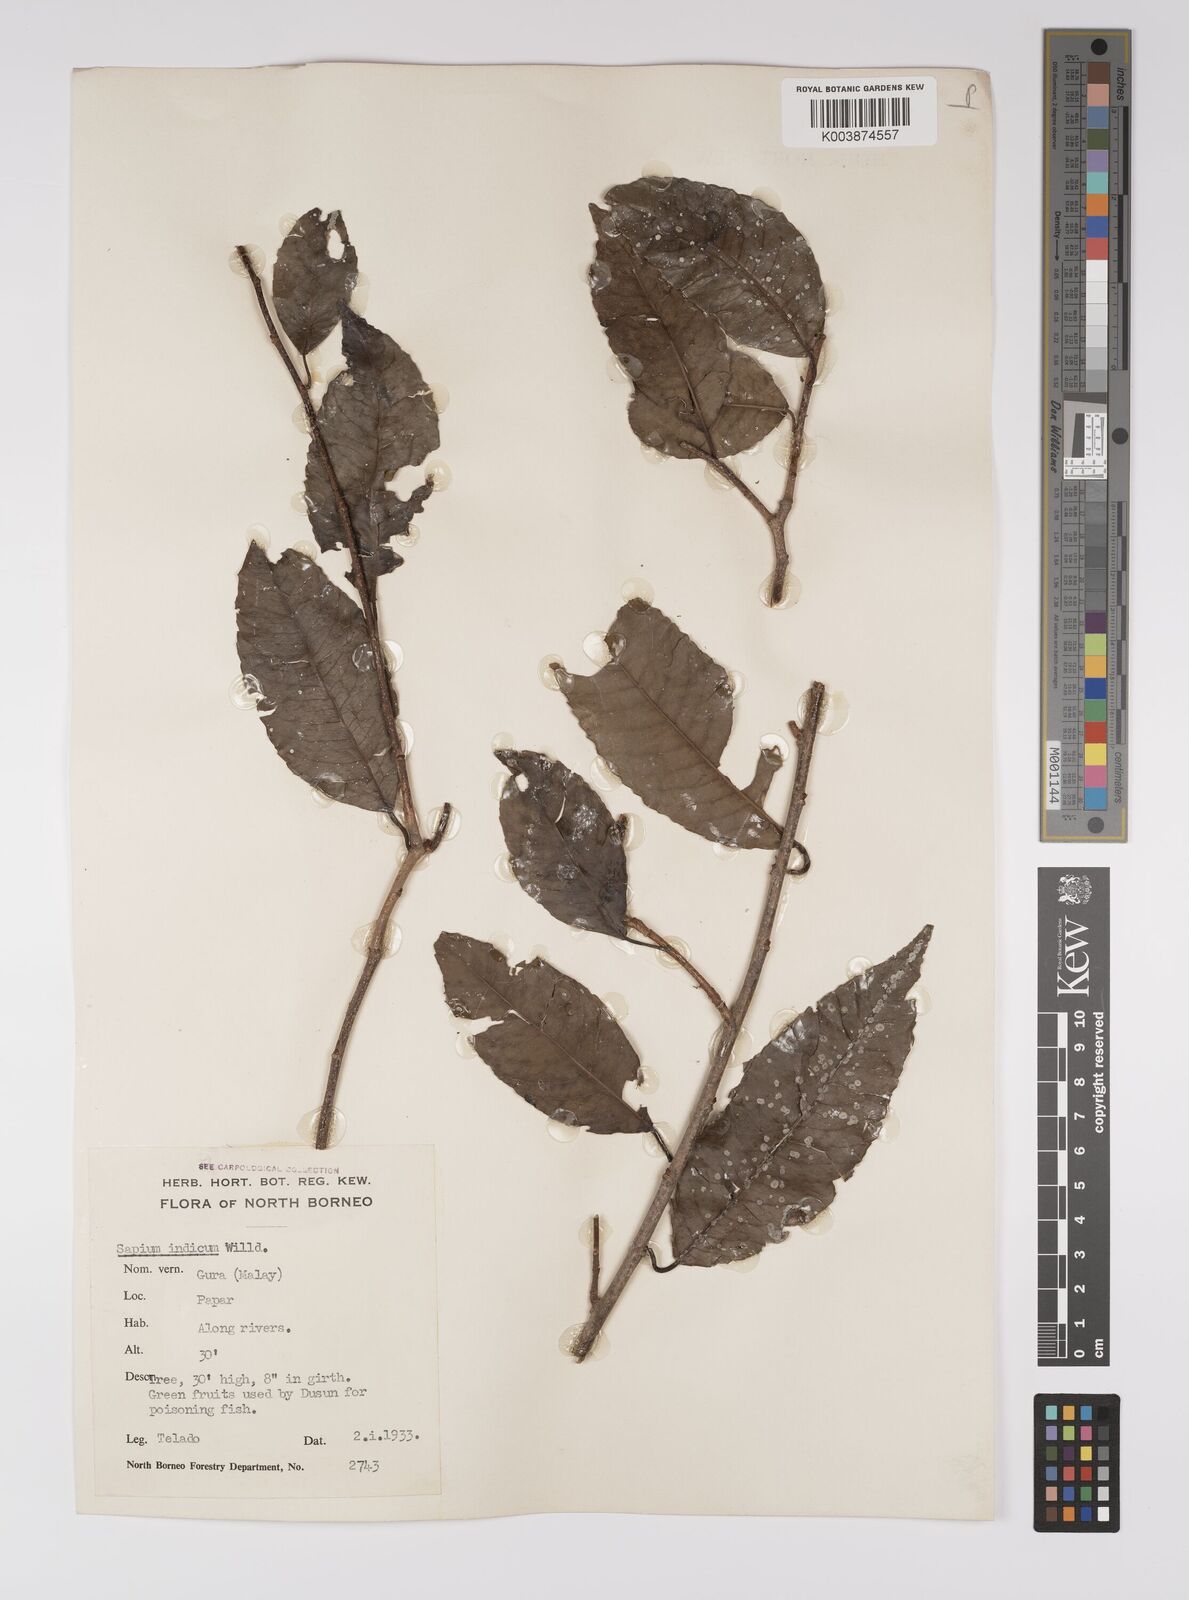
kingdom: Plantae
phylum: Tracheophyta
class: Magnoliopsida
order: Malpighiales
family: Euphorbiaceae
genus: Shirakiopsis
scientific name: Shirakiopsis indica
